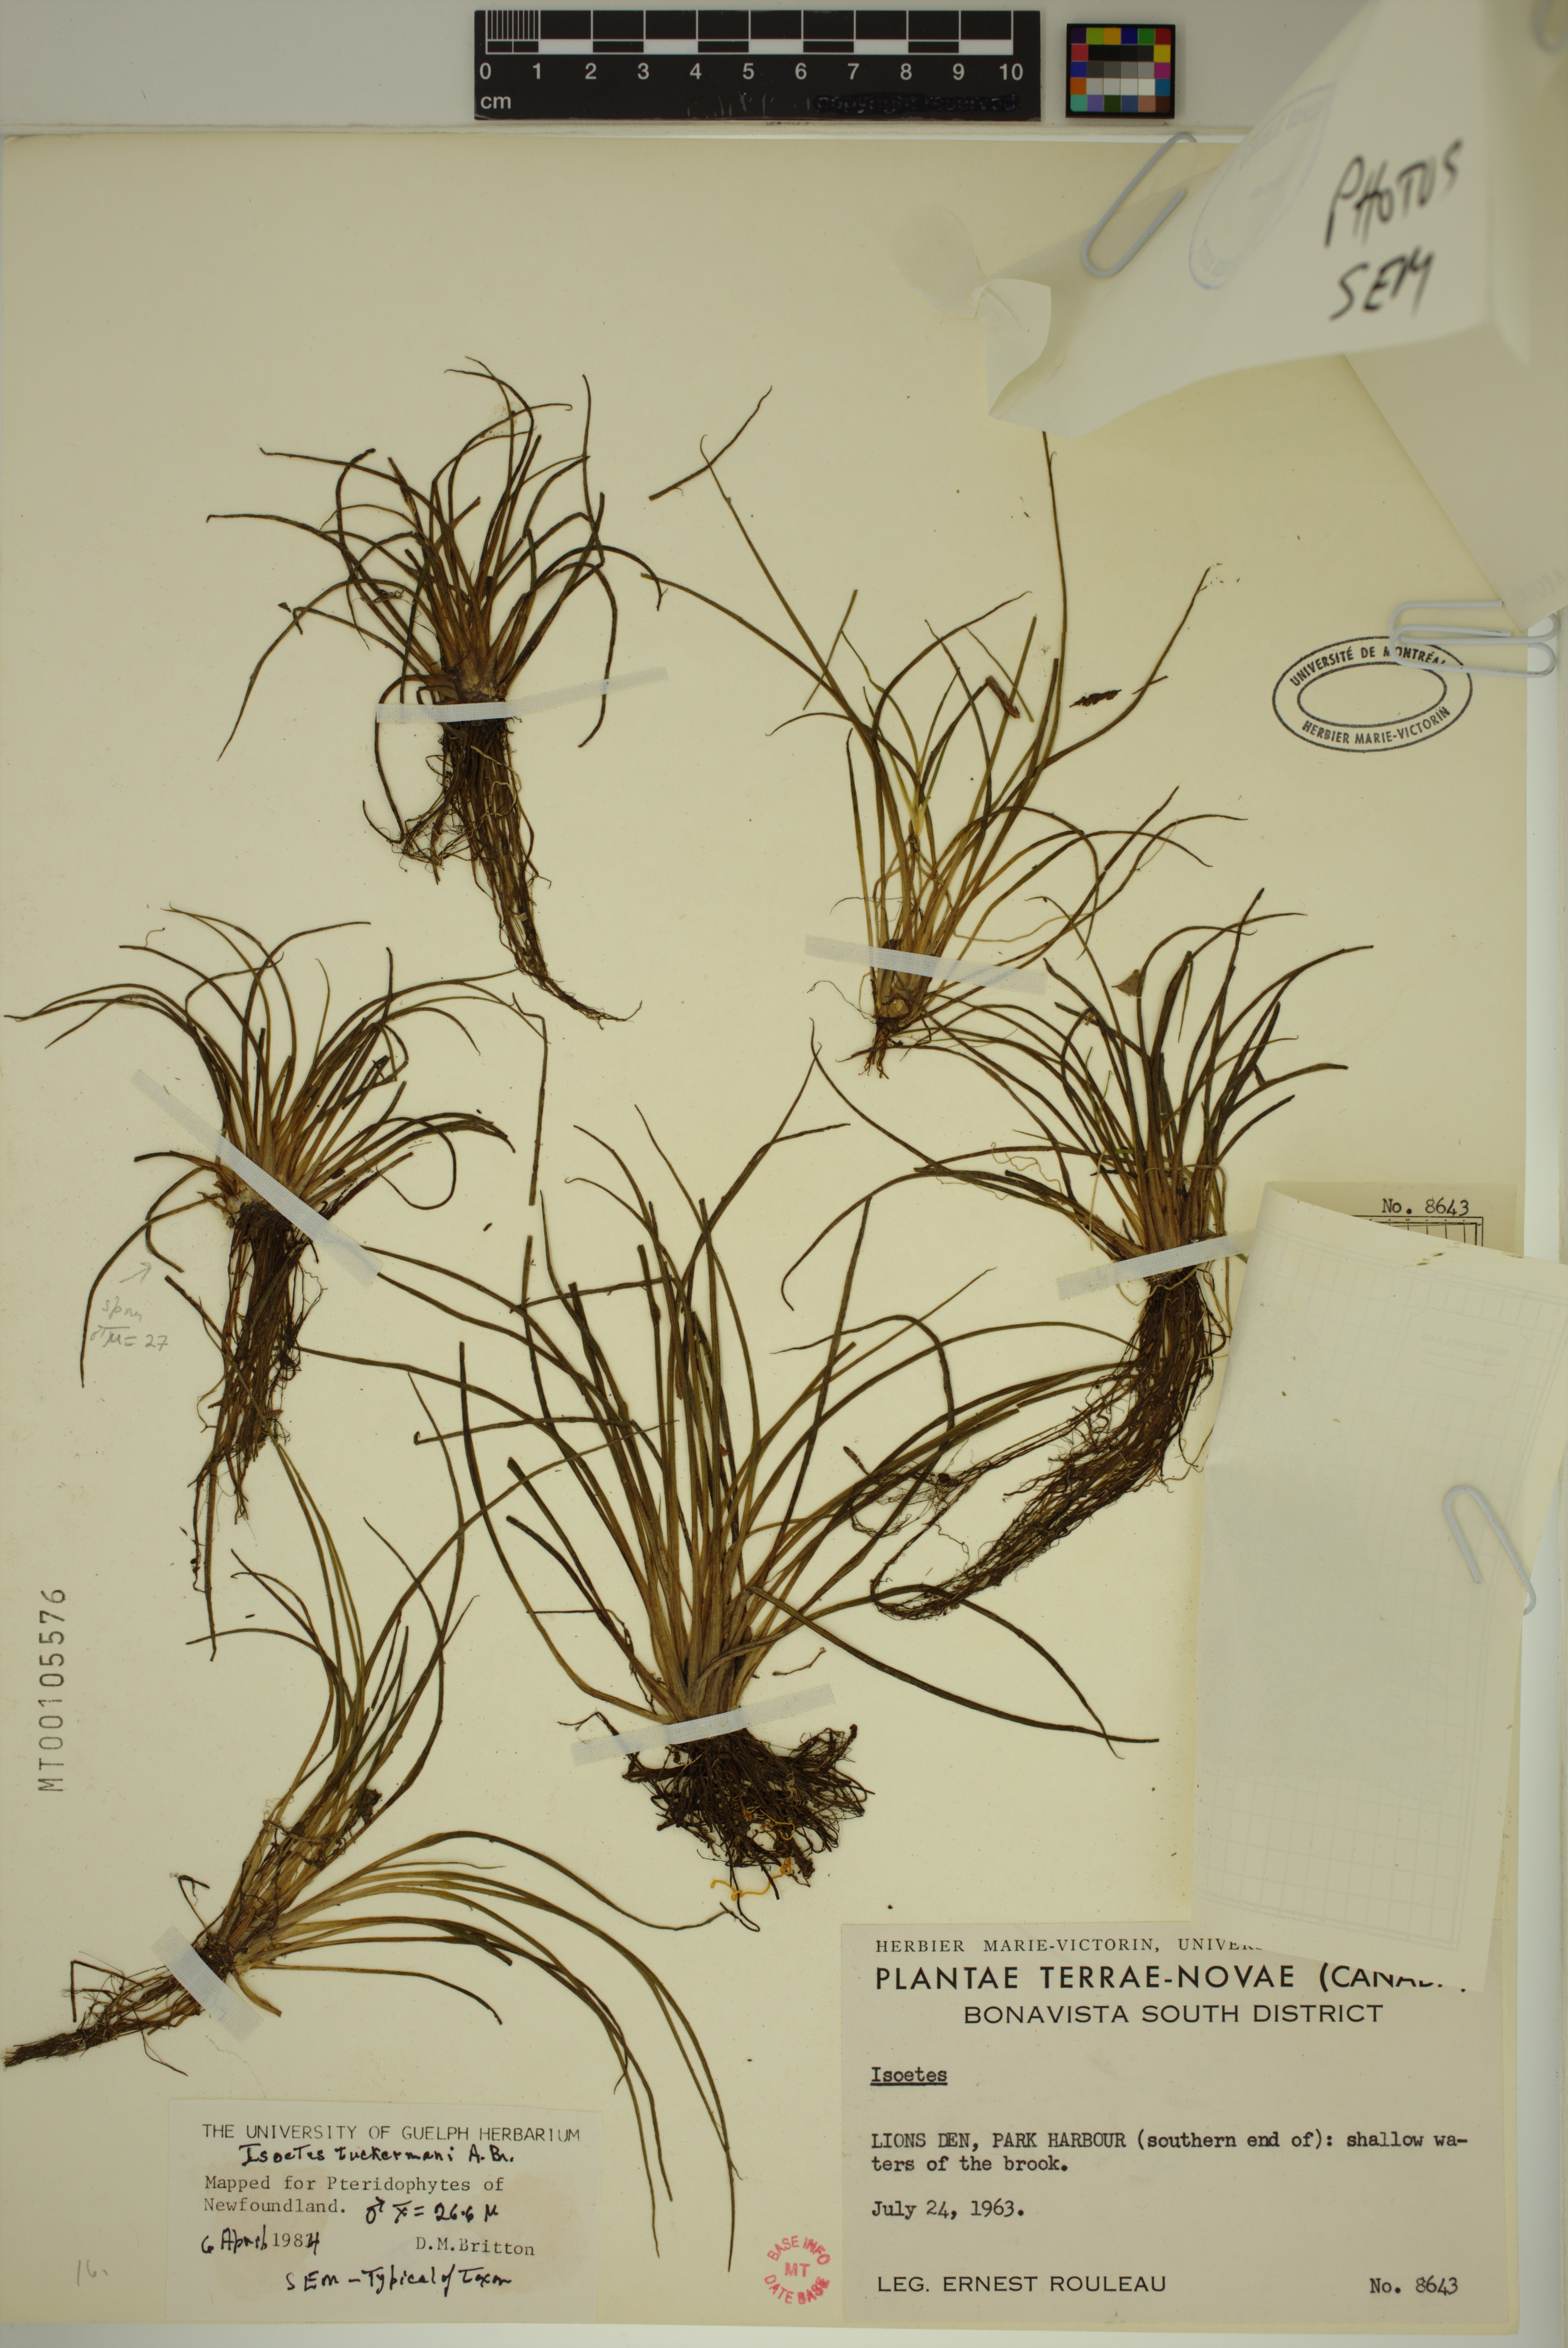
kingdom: Plantae
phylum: Tracheophyta
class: Lycopodiopsida
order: Isoetales
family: Isoetaceae
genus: Isoetes
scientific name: Isoetes tuckermanii
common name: Tuckerman's quillwort
